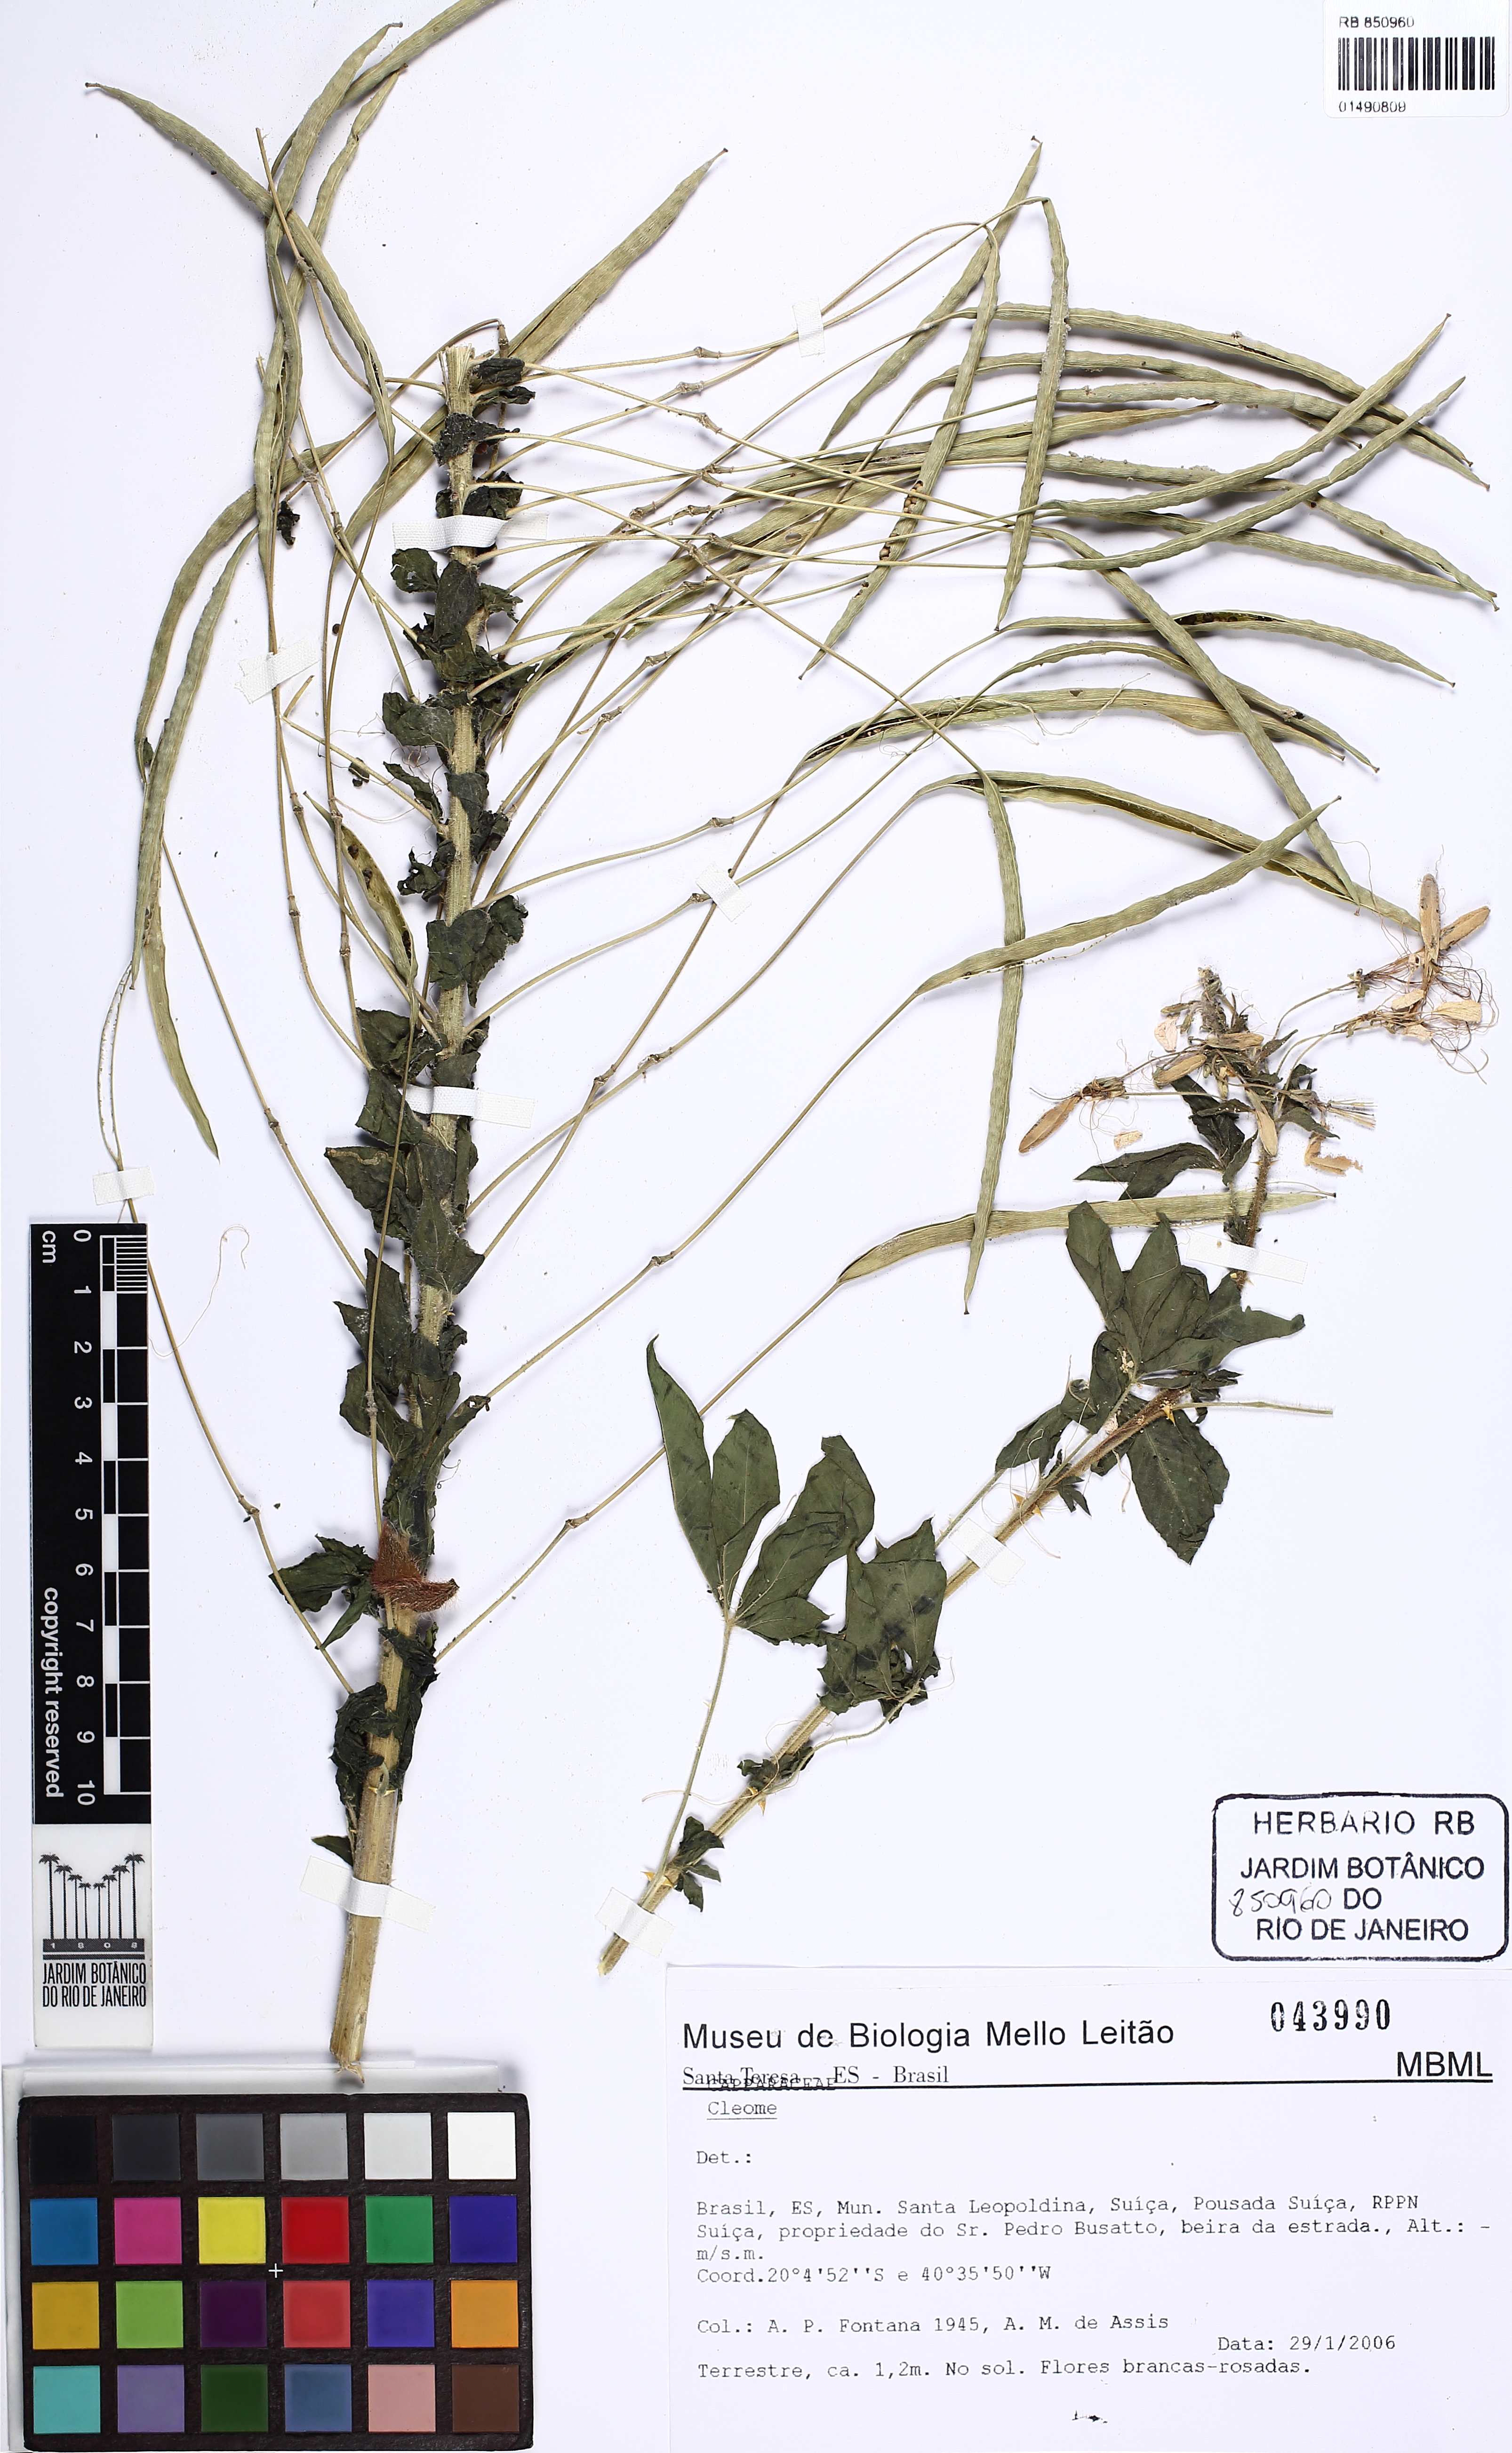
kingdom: Plantae
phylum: Tracheophyta
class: Magnoliopsida
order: Brassicales
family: Cleomaceae
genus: Cleome
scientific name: Cleome
